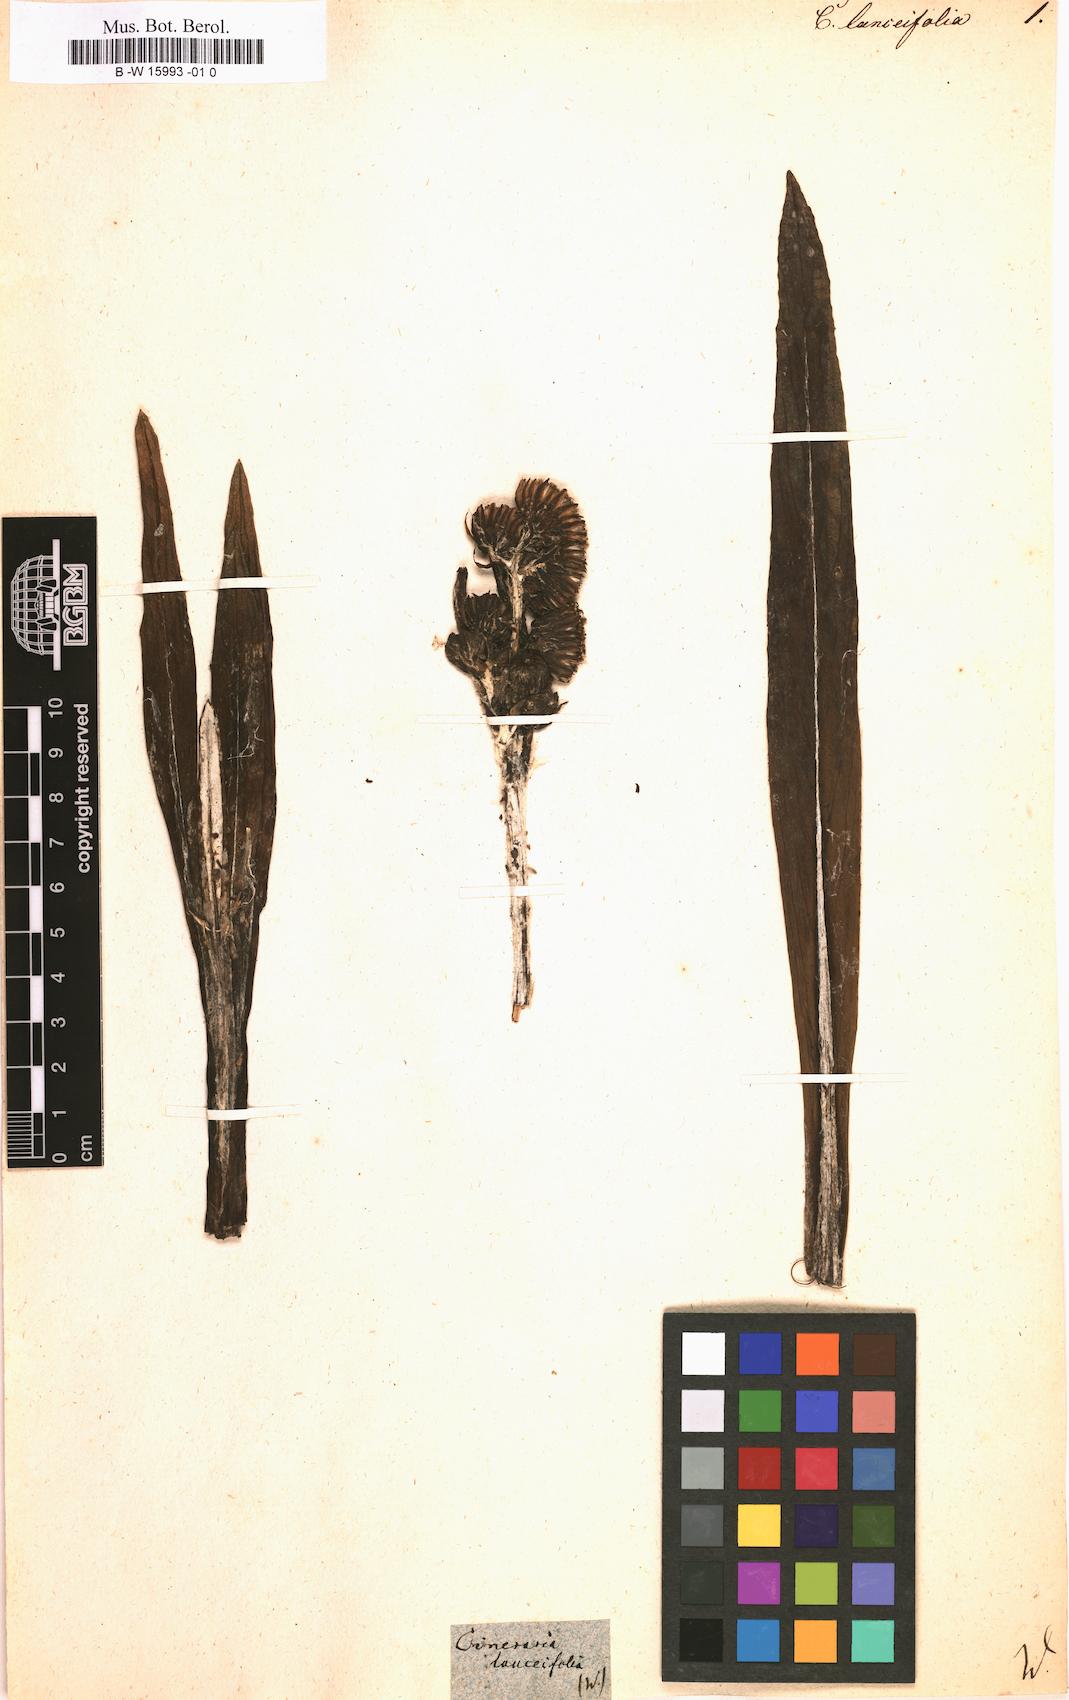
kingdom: Plantae
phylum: Tracheophyta
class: Magnoliopsida
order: Asterales
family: Asteraceae
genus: Cineraria
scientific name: Cineraria
